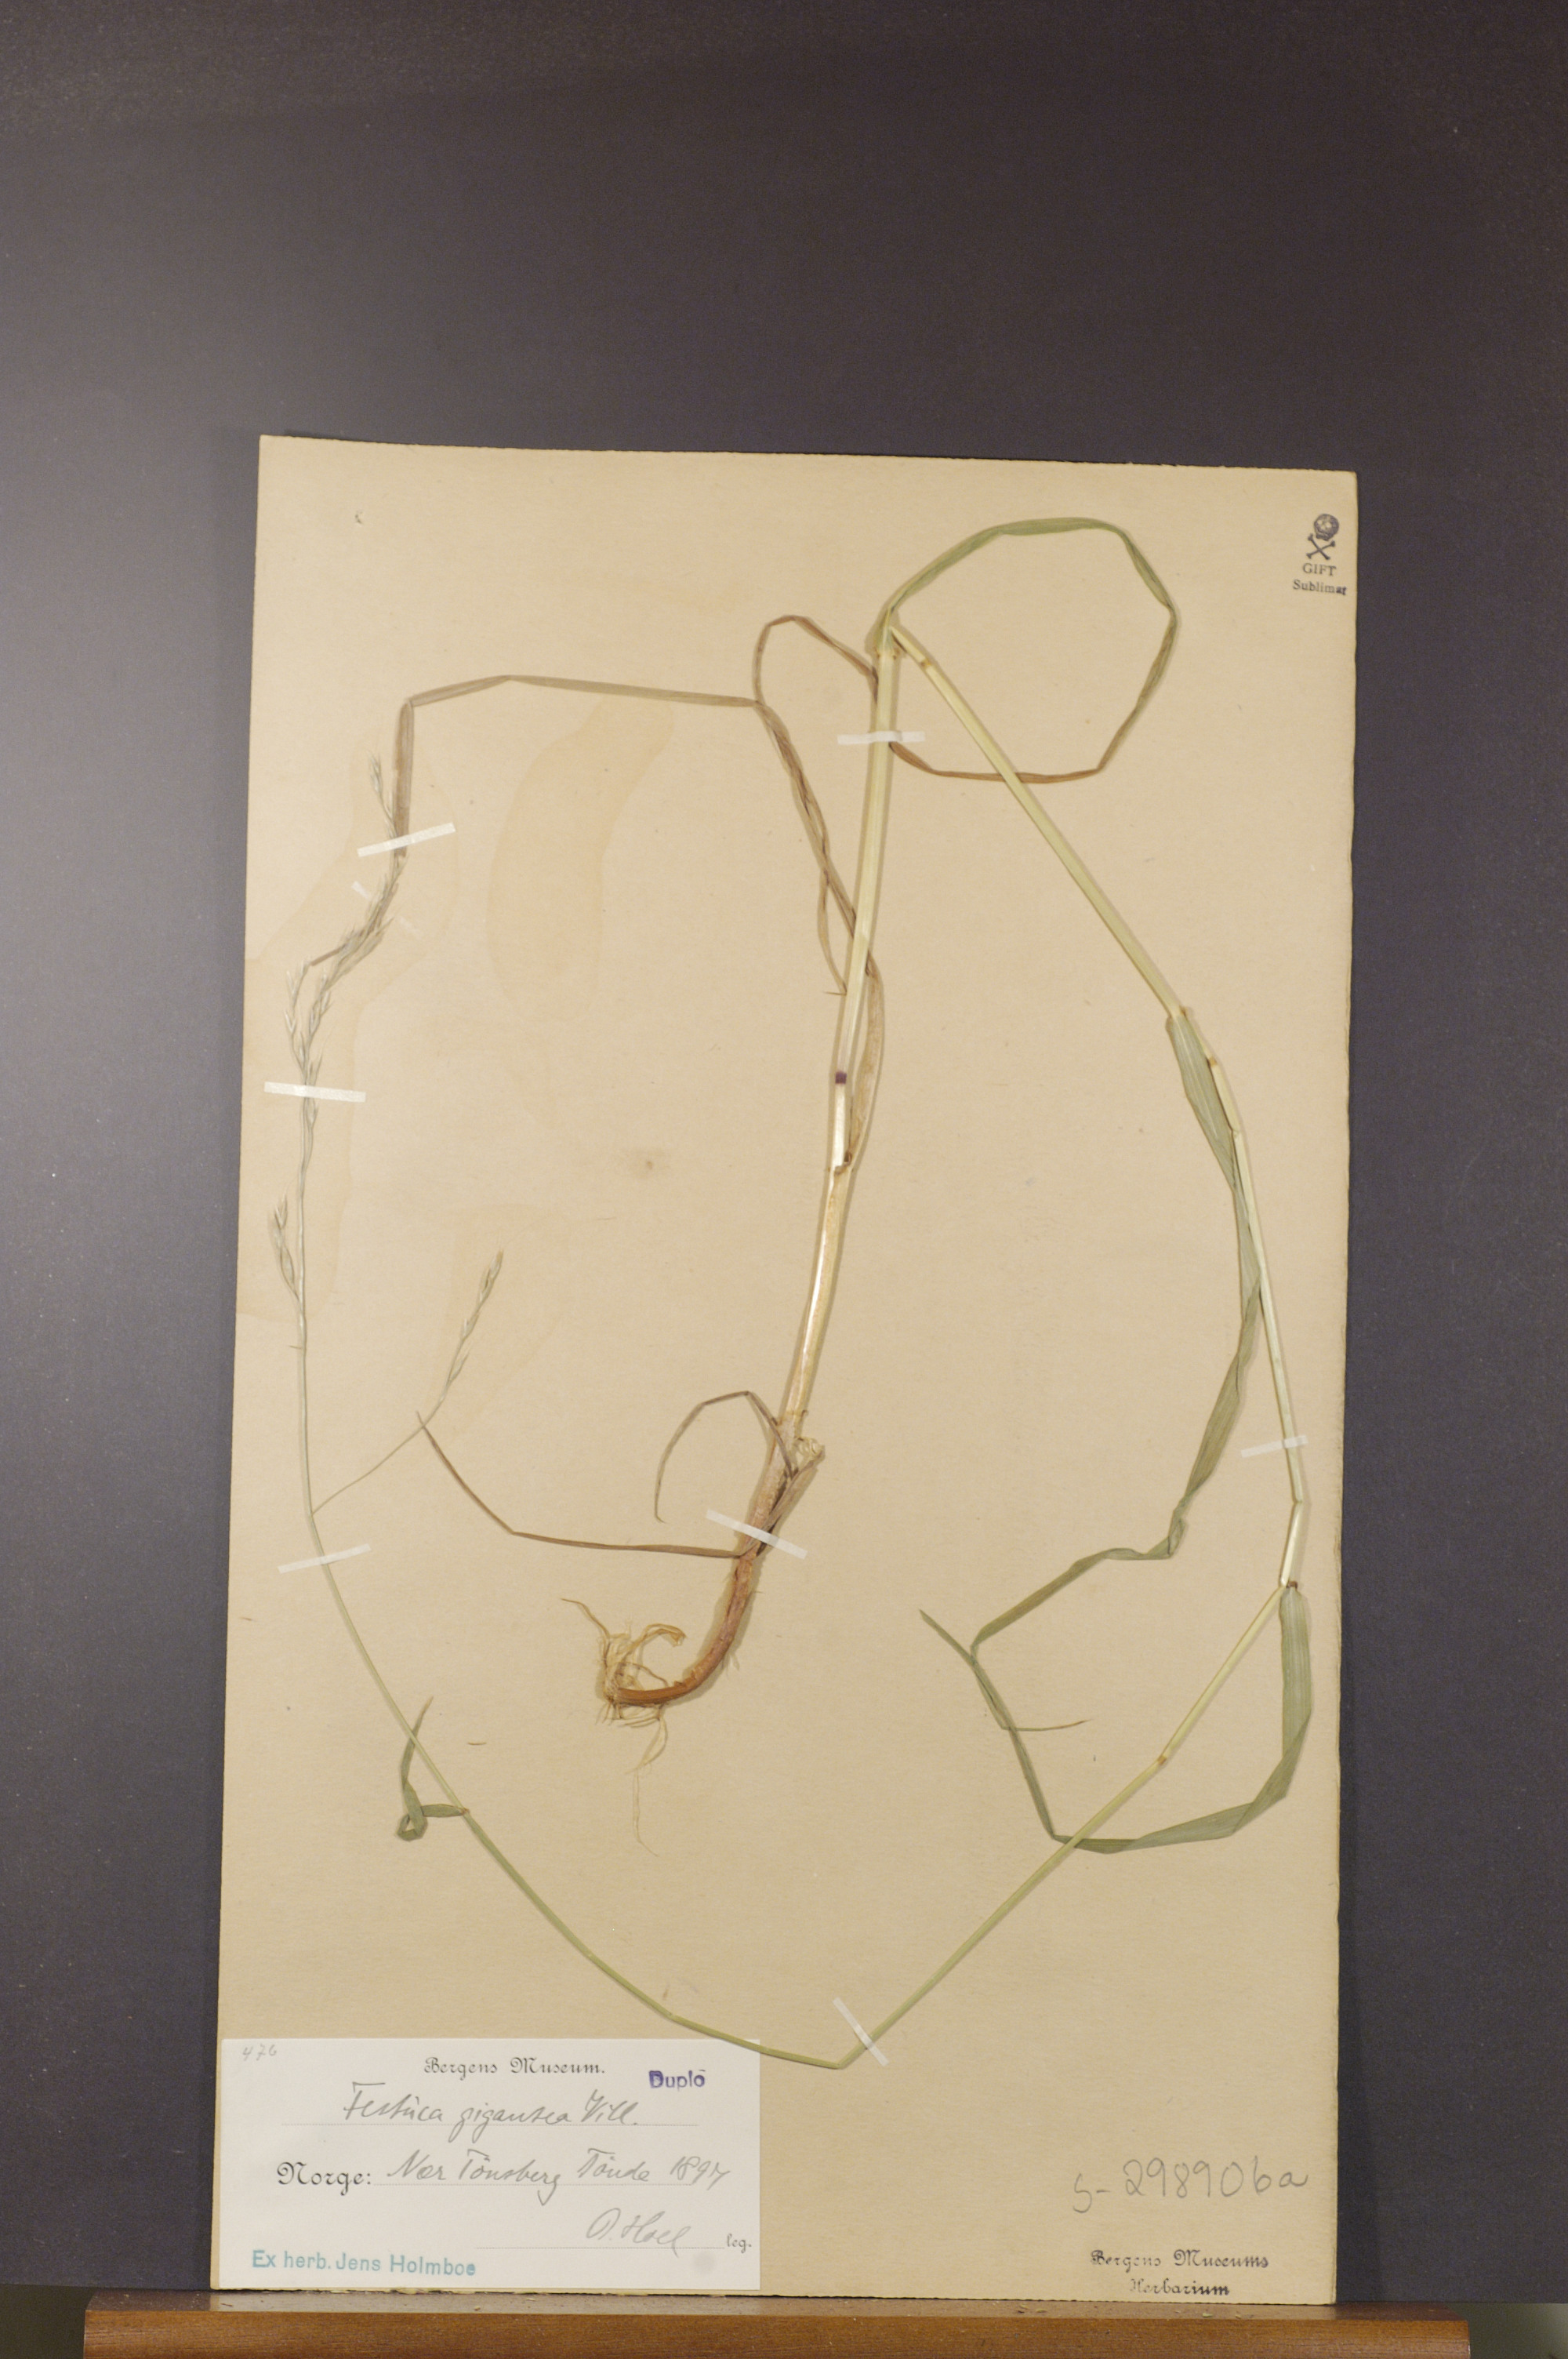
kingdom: Plantae
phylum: Tracheophyta
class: Liliopsida
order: Poales
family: Poaceae
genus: Lolium
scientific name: Lolium giganteum
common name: Giant fescue
